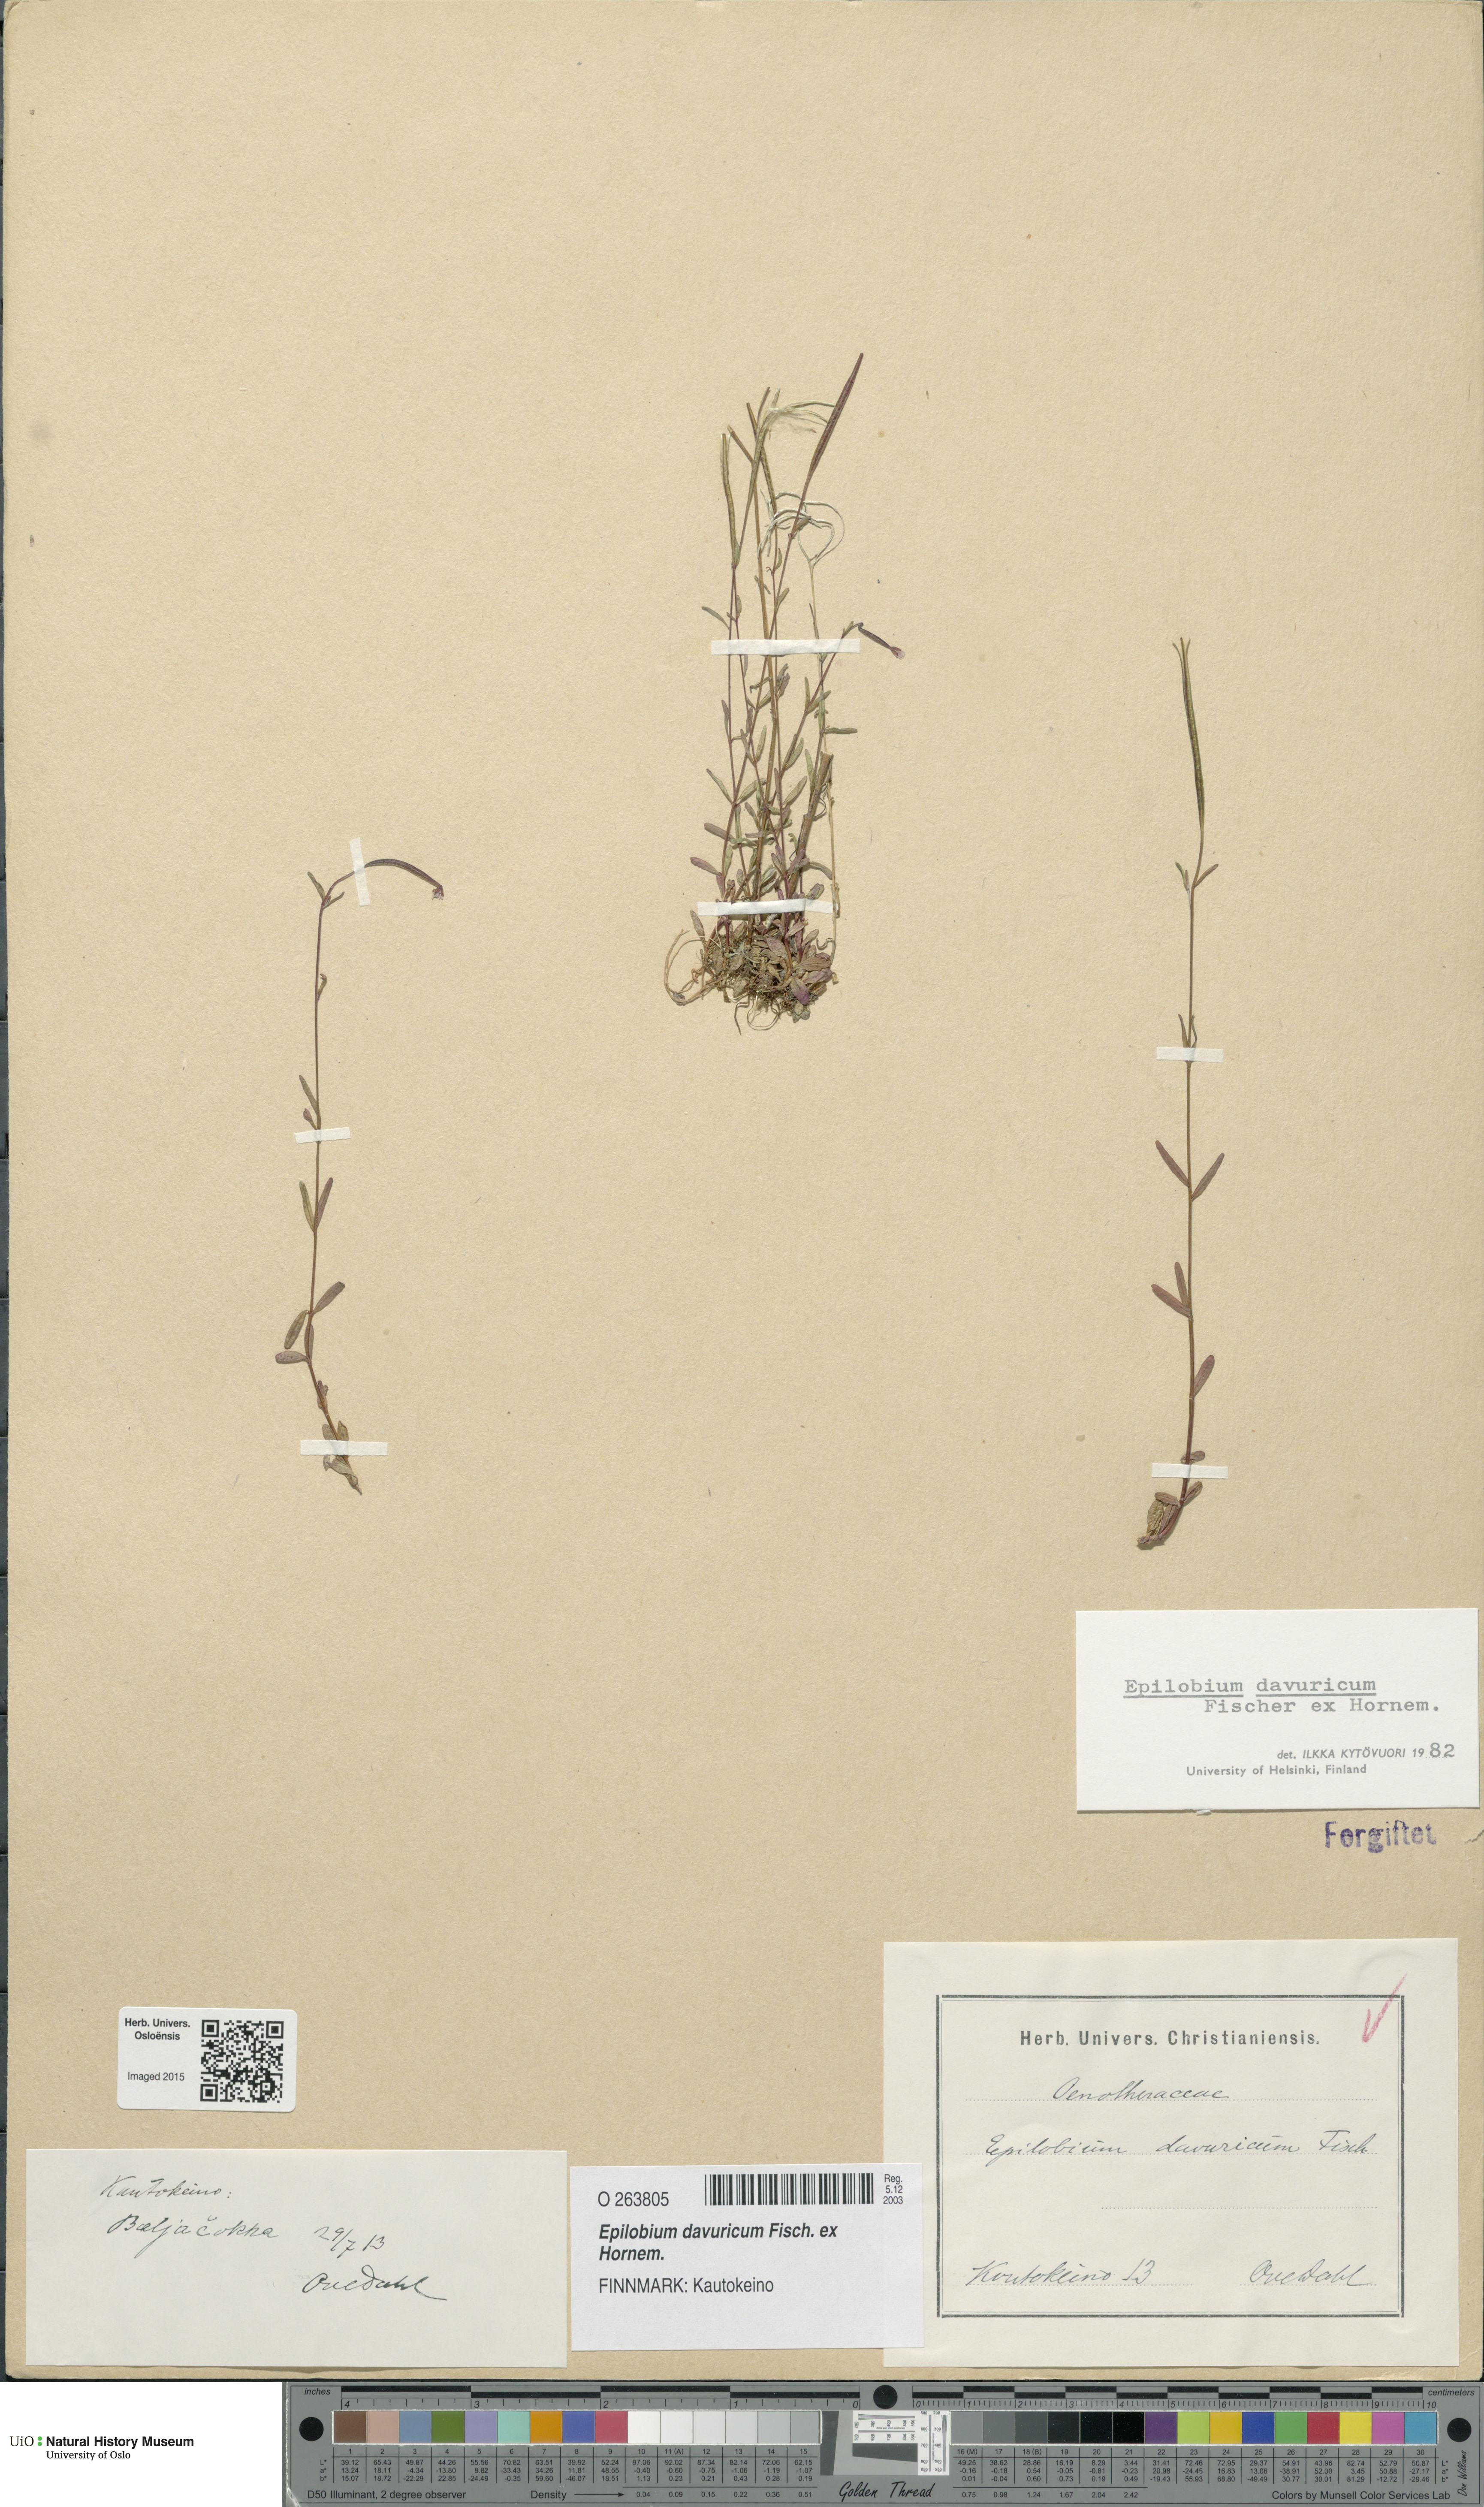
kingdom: Plantae
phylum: Tracheophyta
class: Magnoliopsida
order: Myrtales
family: Onagraceae
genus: Epilobium
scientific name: Epilobium davuricum
